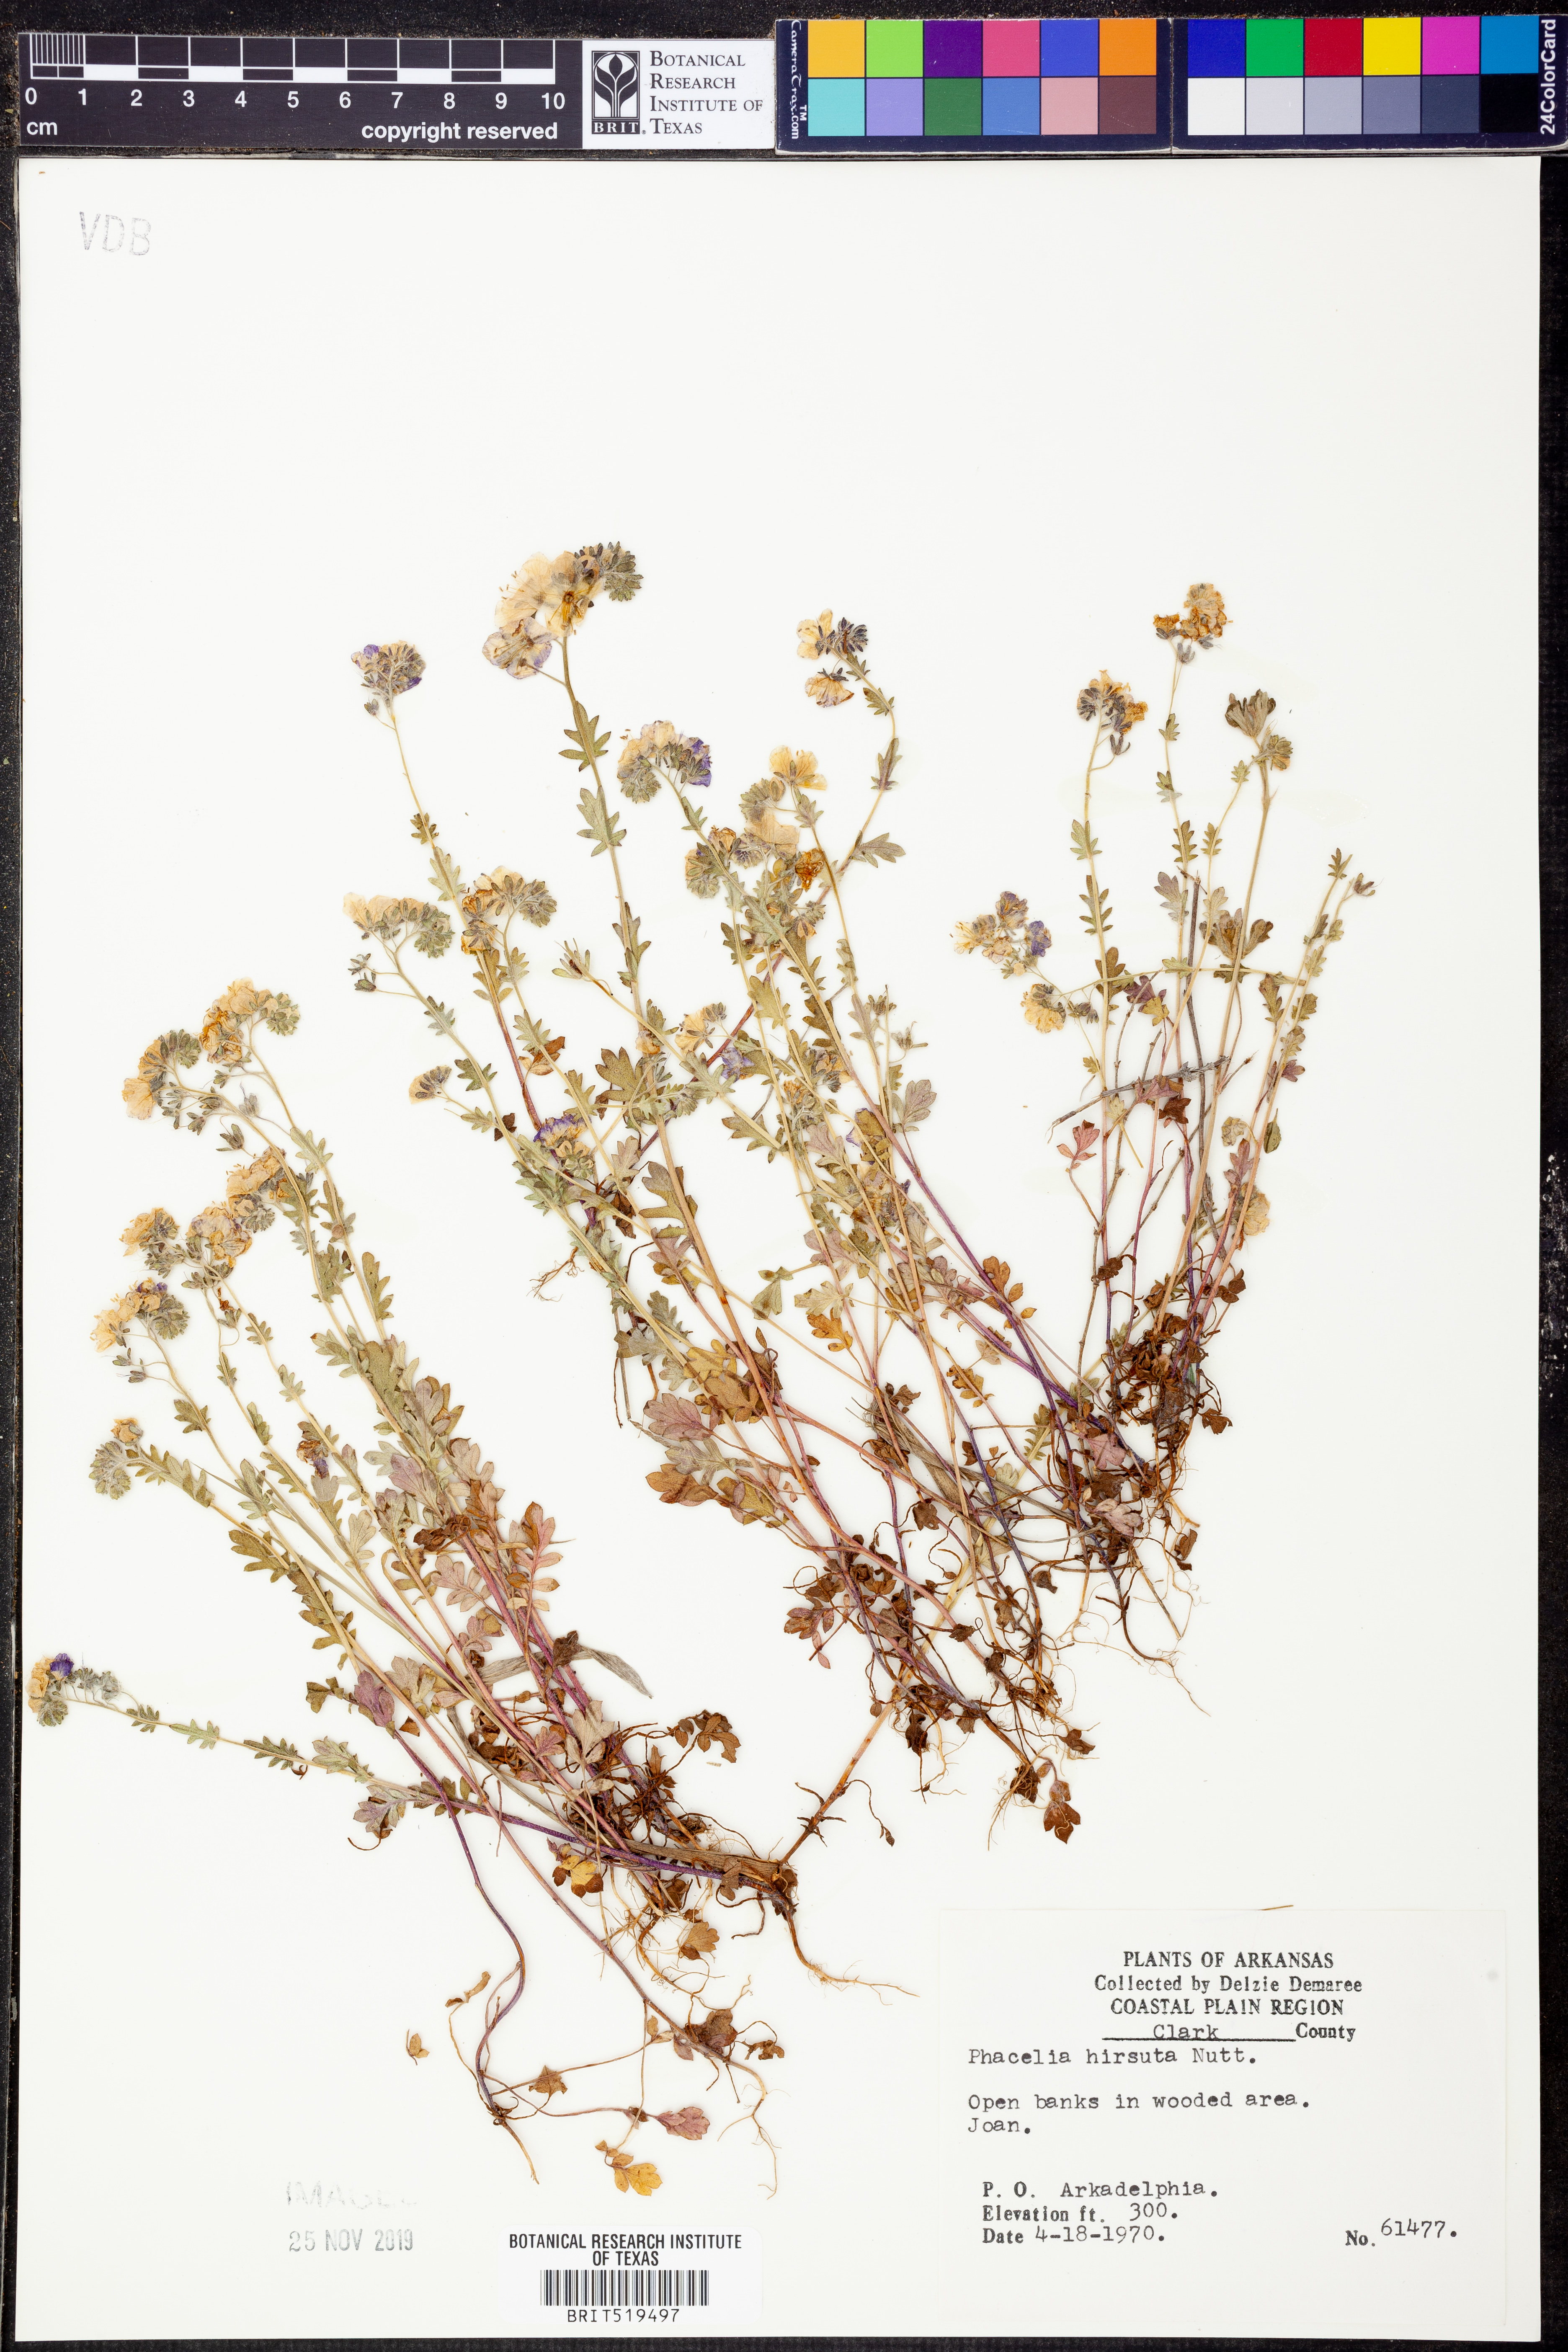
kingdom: Plantae
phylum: Tracheophyta
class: Magnoliopsida
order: Boraginales
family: Hydrophyllaceae
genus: Phacelia
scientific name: Phacelia hirsuta
